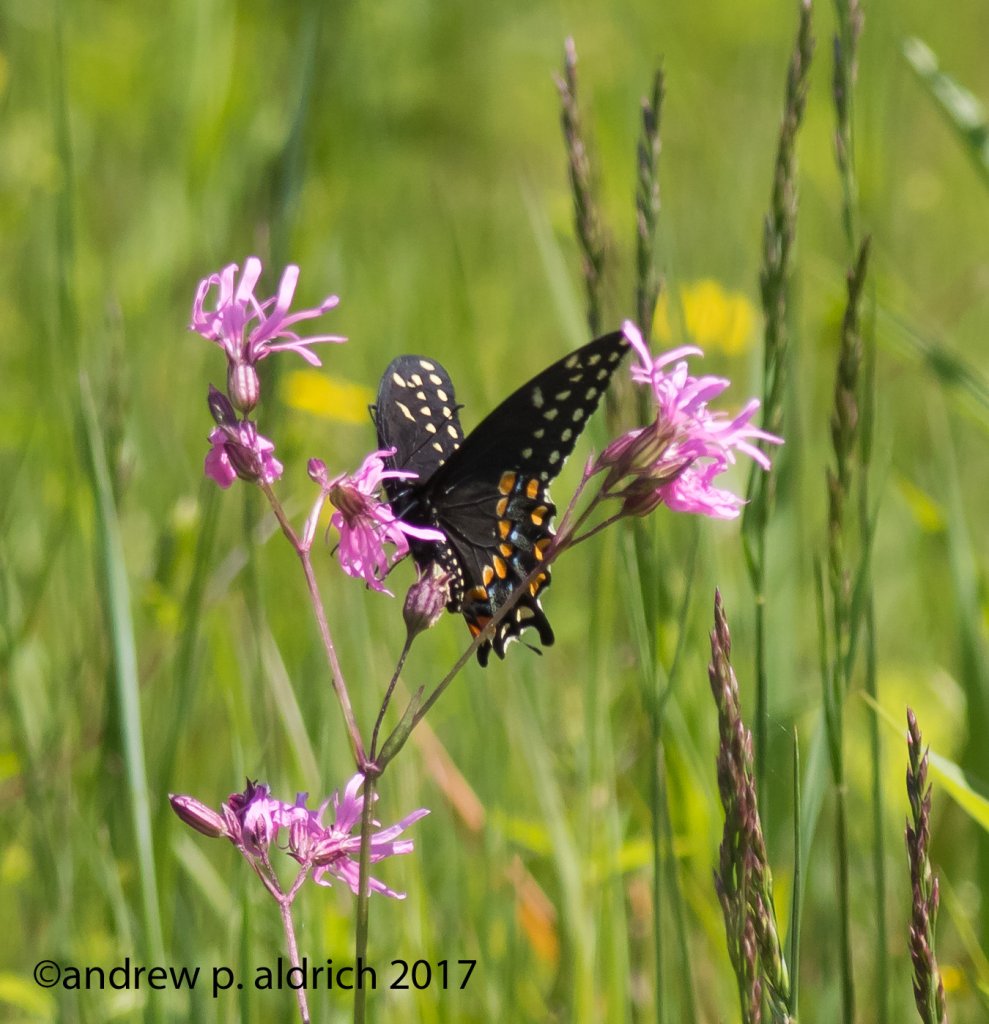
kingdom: Animalia
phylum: Arthropoda
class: Insecta
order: Lepidoptera
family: Papilionidae
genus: Papilio
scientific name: Papilio polyxenes
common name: Black Swallowtail
